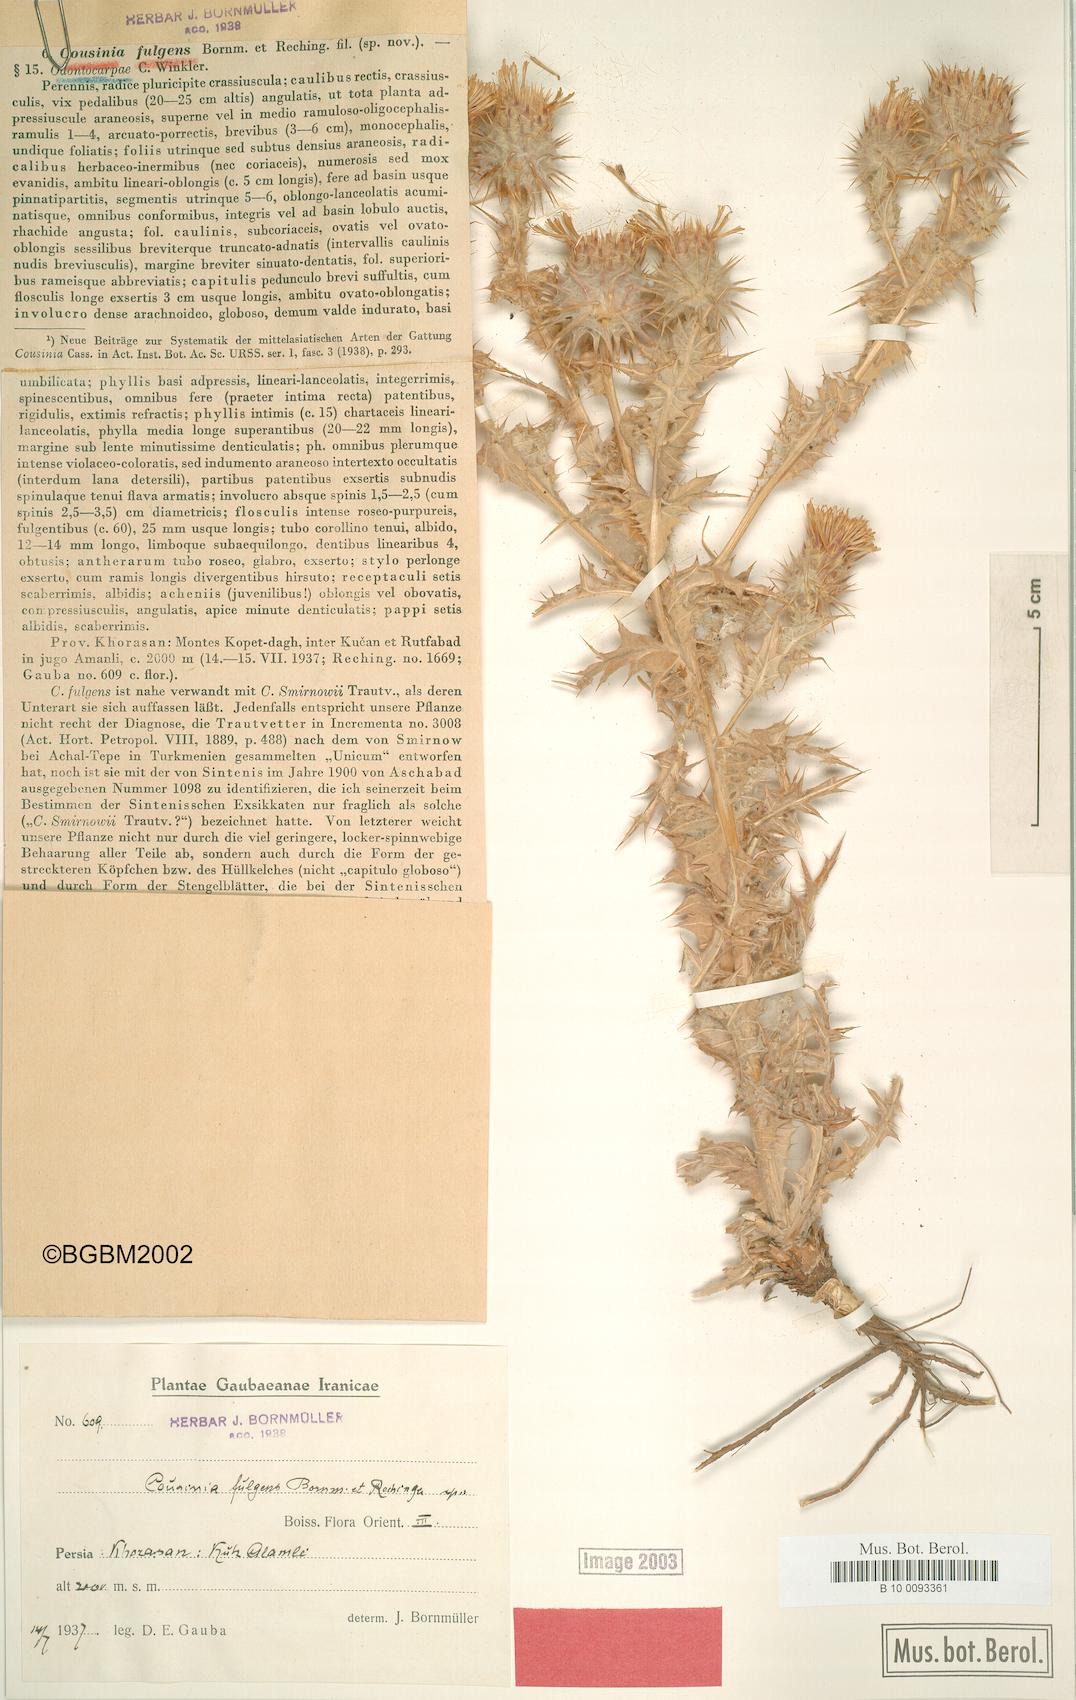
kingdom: Plantae
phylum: Tracheophyta
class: Magnoliopsida
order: Asterales
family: Asteraceae
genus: Cousinia
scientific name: Cousinia smirnowii
